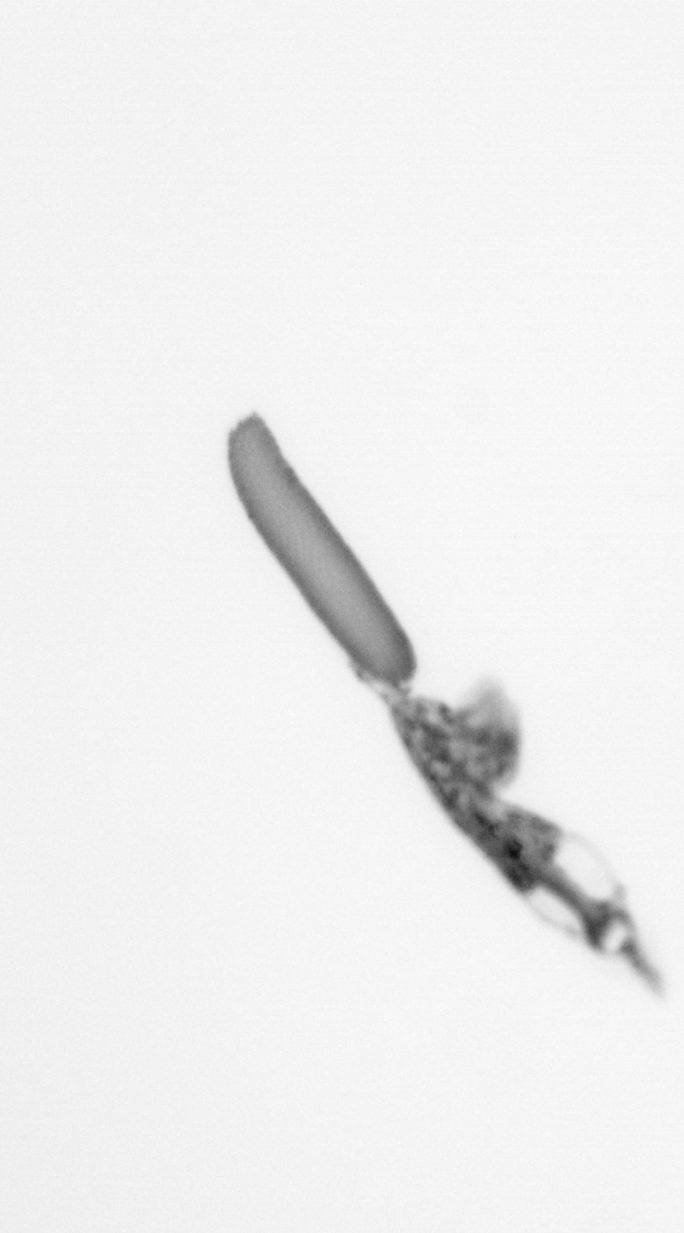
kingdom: Animalia
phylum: Arthropoda
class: Copepoda
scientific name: Copepoda
